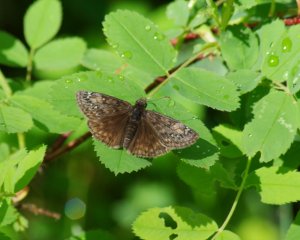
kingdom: Animalia
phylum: Arthropoda
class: Insecta
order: Lepidoptera
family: Hesperiidae
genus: Gesta
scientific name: Gesta
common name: Juvenal's Duskywing
